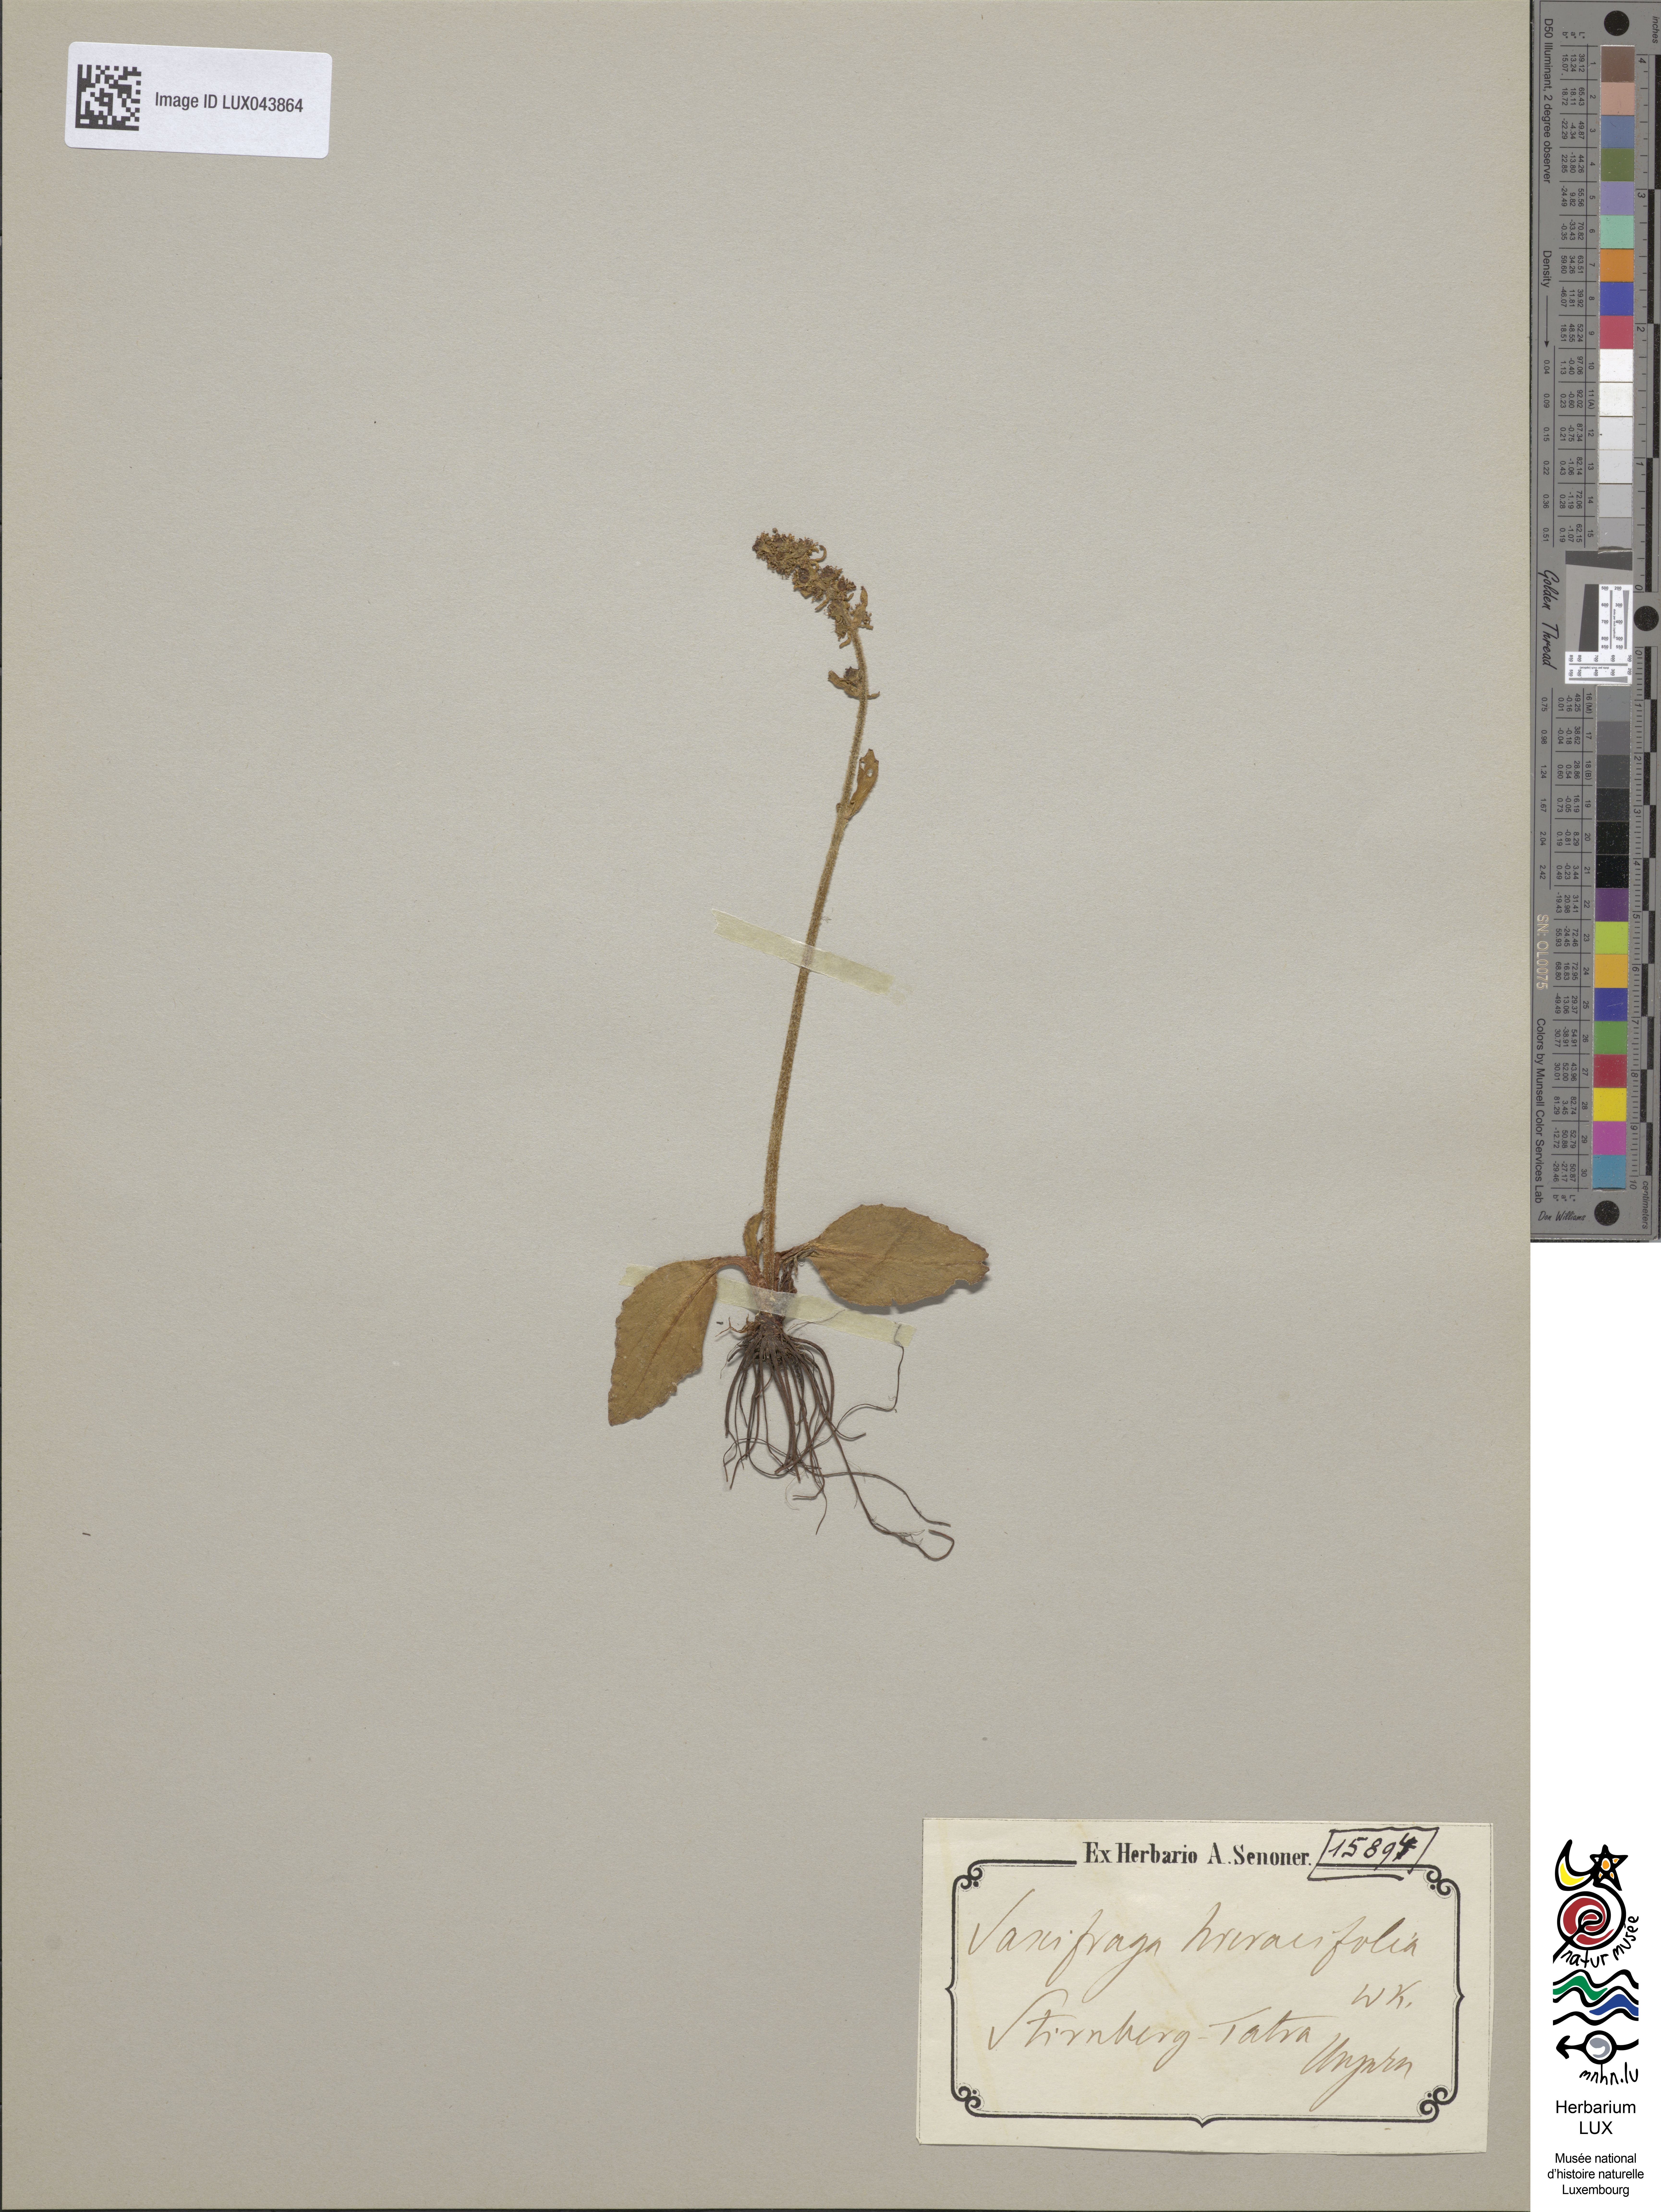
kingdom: Plantae
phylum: Tracheophyta
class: Magnoliopsida
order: Saxifragales
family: Saxifragaceae
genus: Micranthes
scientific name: Micranthes hieraciifolia
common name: Hawkweed-leaved saxifrage
